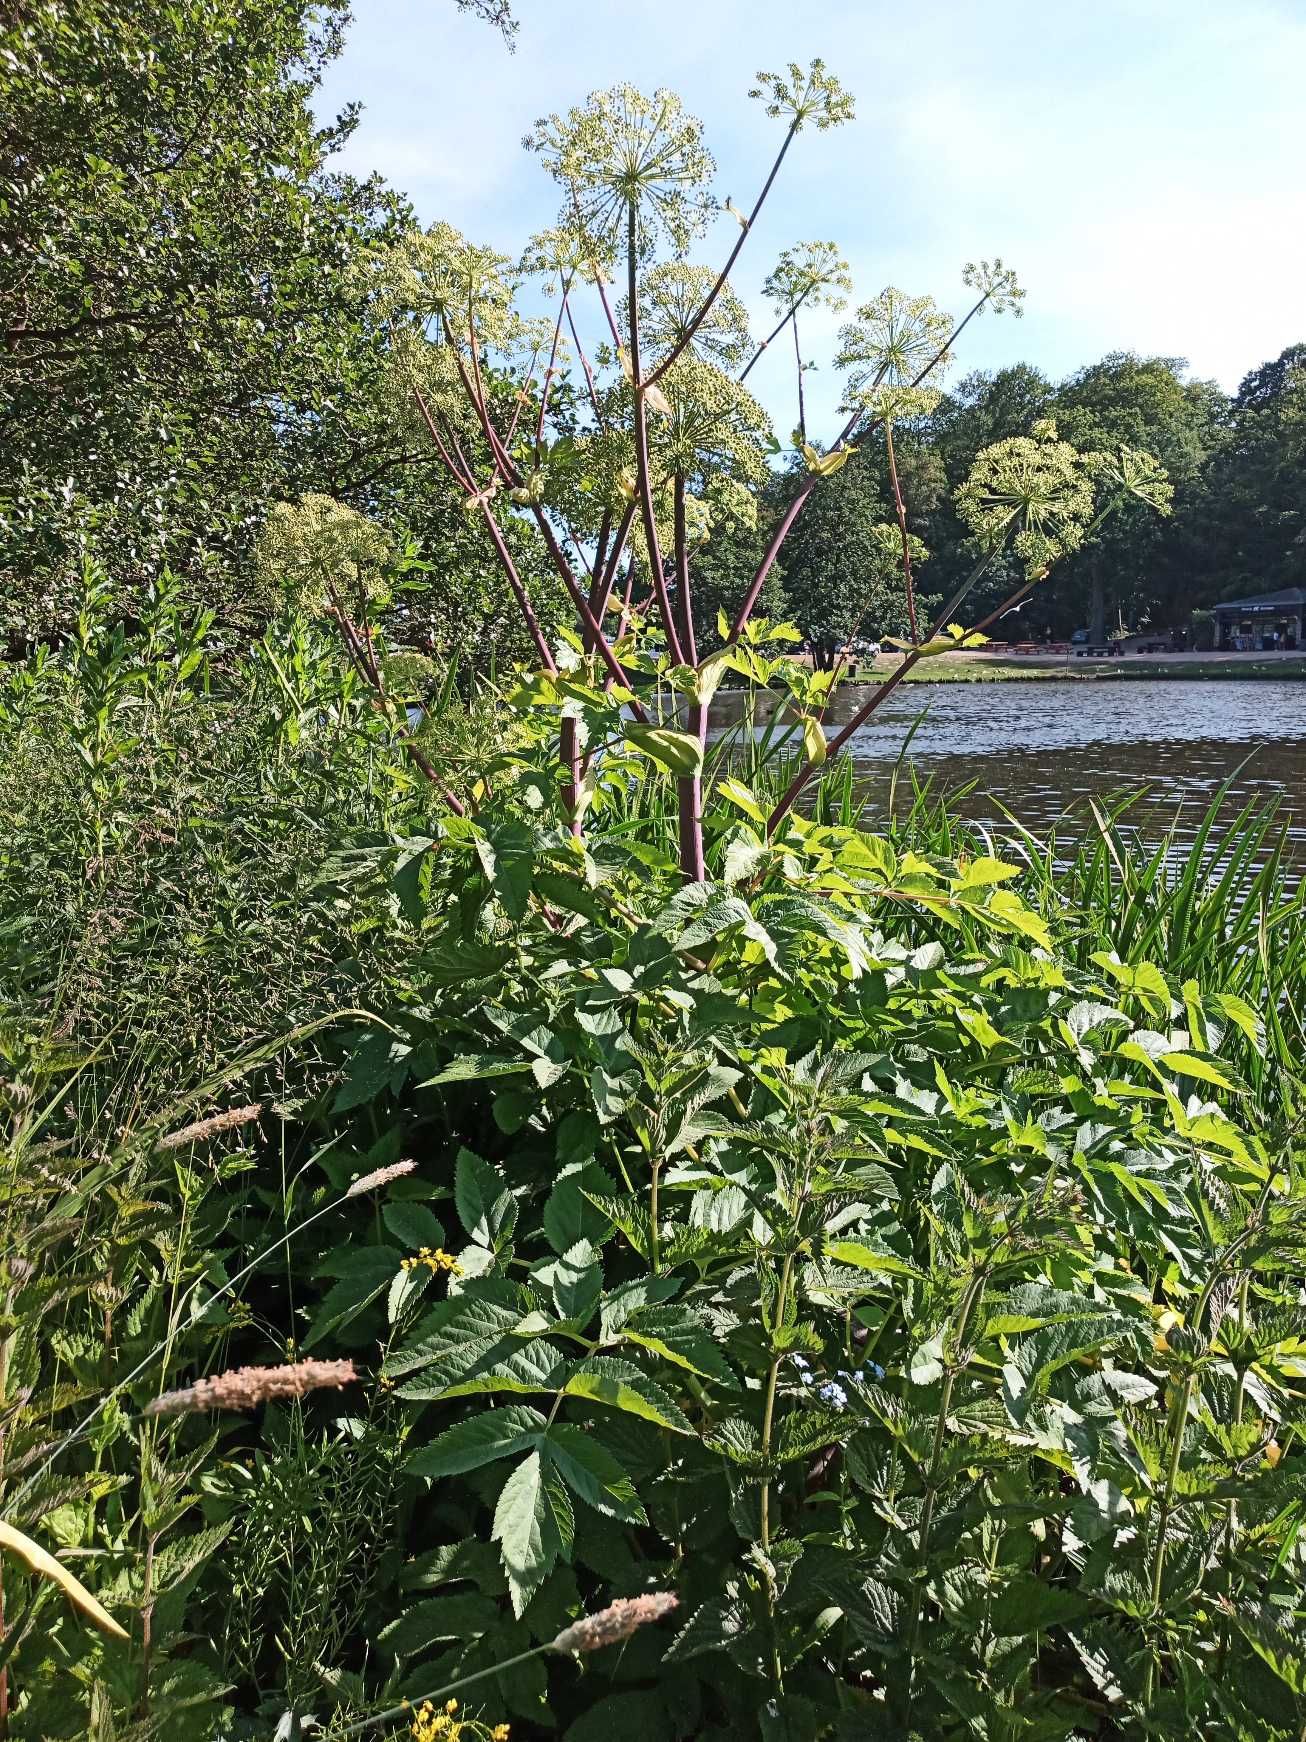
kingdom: Plantae
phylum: Tracheophyta
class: Magnoliopsida
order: Apiales
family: Apiaceae
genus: Angelica
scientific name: Angelica archangelica
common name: Kvan
